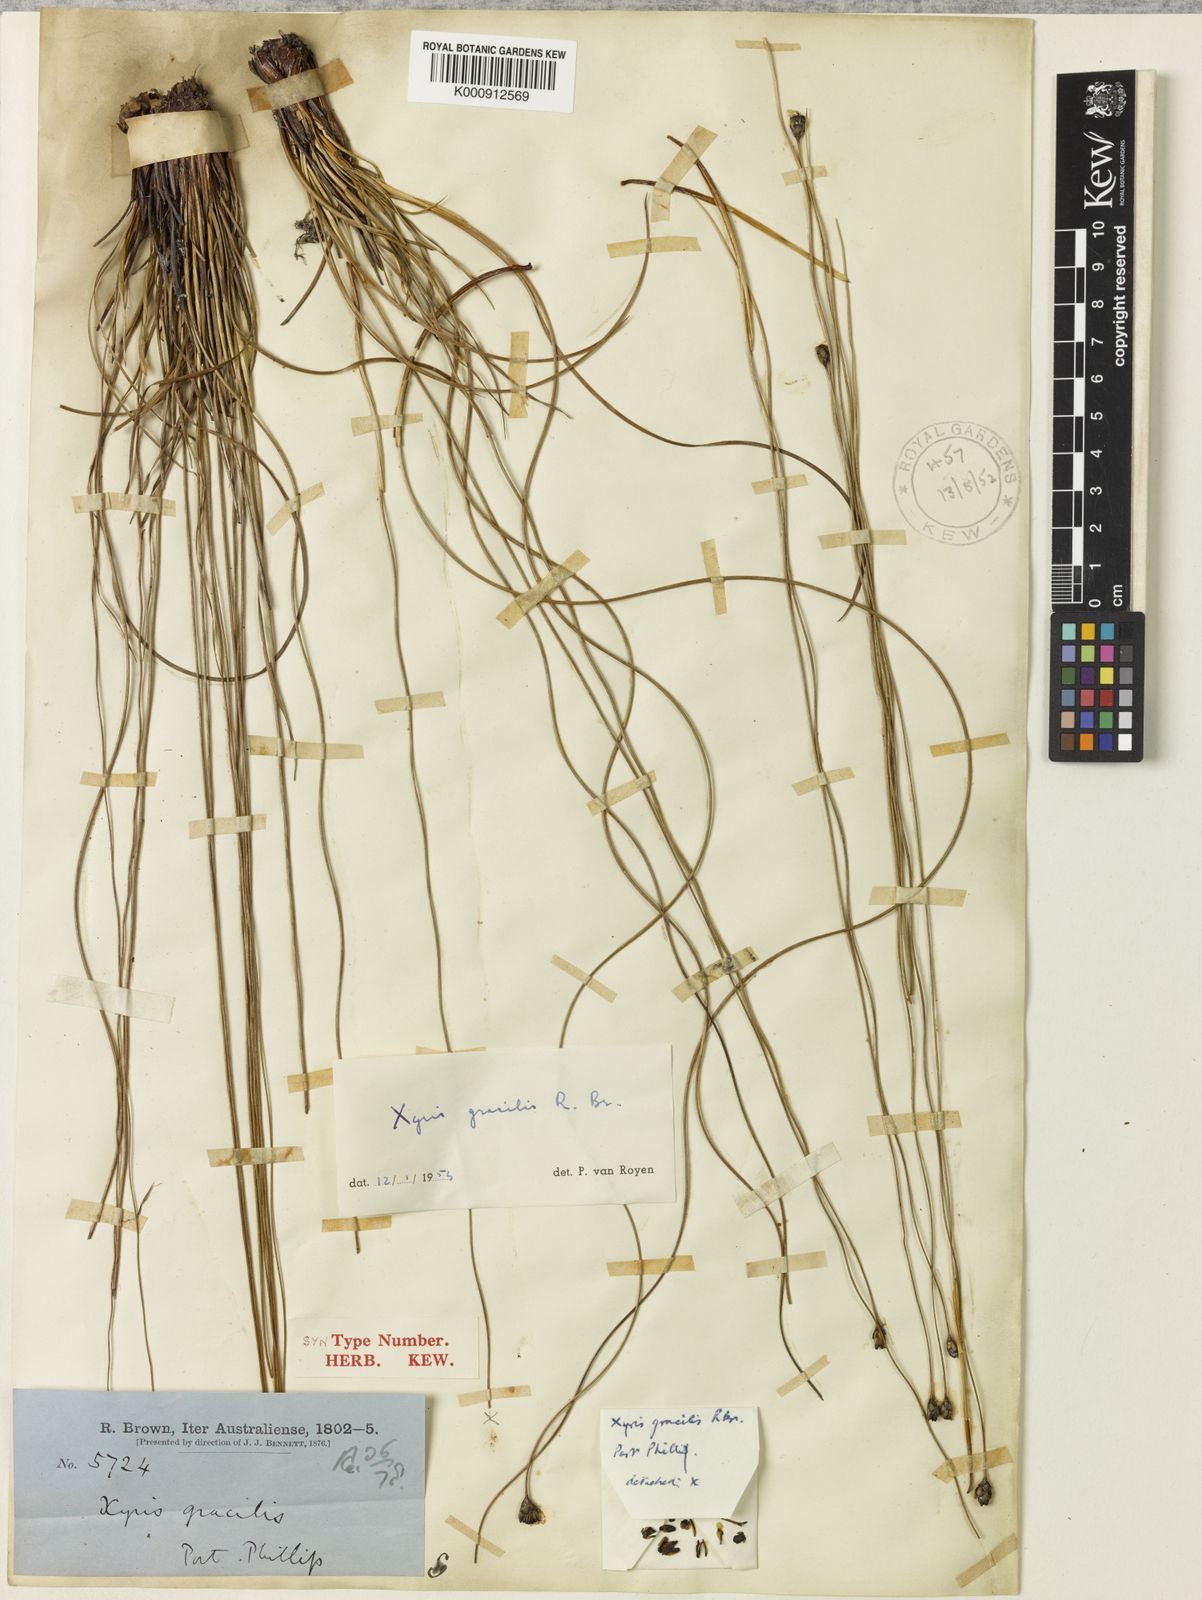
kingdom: Plantae
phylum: Tracheophyta
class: Liliopsida
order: Poales
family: Xyridaceae
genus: Xyris
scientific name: Xyris gracilis
